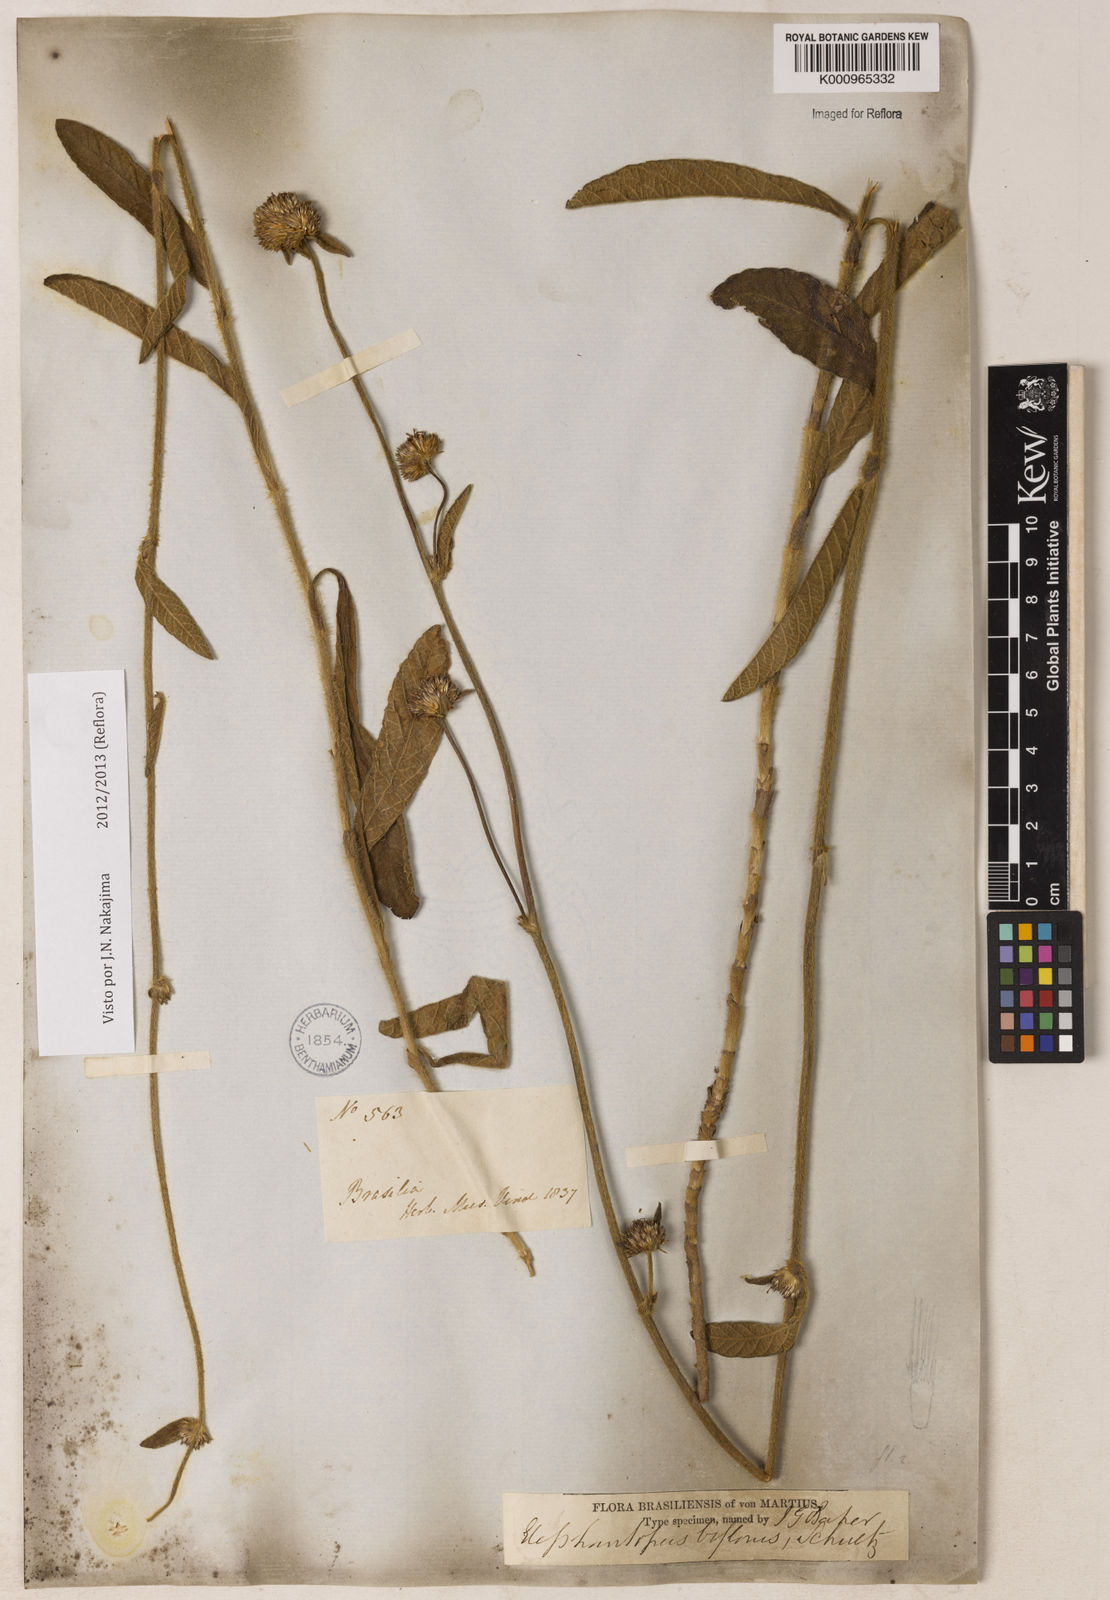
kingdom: Plantae
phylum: Tracheophyta
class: Magnoliopsida
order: Asterales
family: Asteraceae
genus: Elephantopus
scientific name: Elephantopus biflorus
